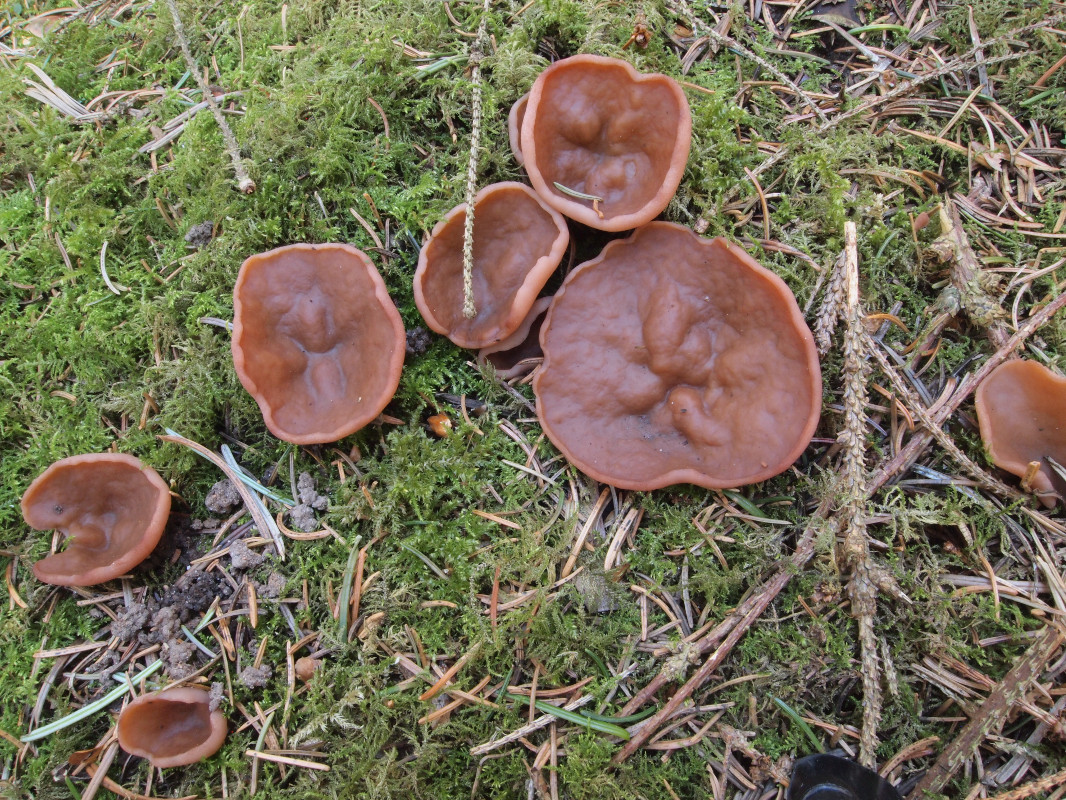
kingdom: Fungi
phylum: Ascomycota
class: Pezizomycetes
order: Pezizales
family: Discinaceae
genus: Discina
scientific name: Discina ancilis
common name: udbredt stenmorkel
